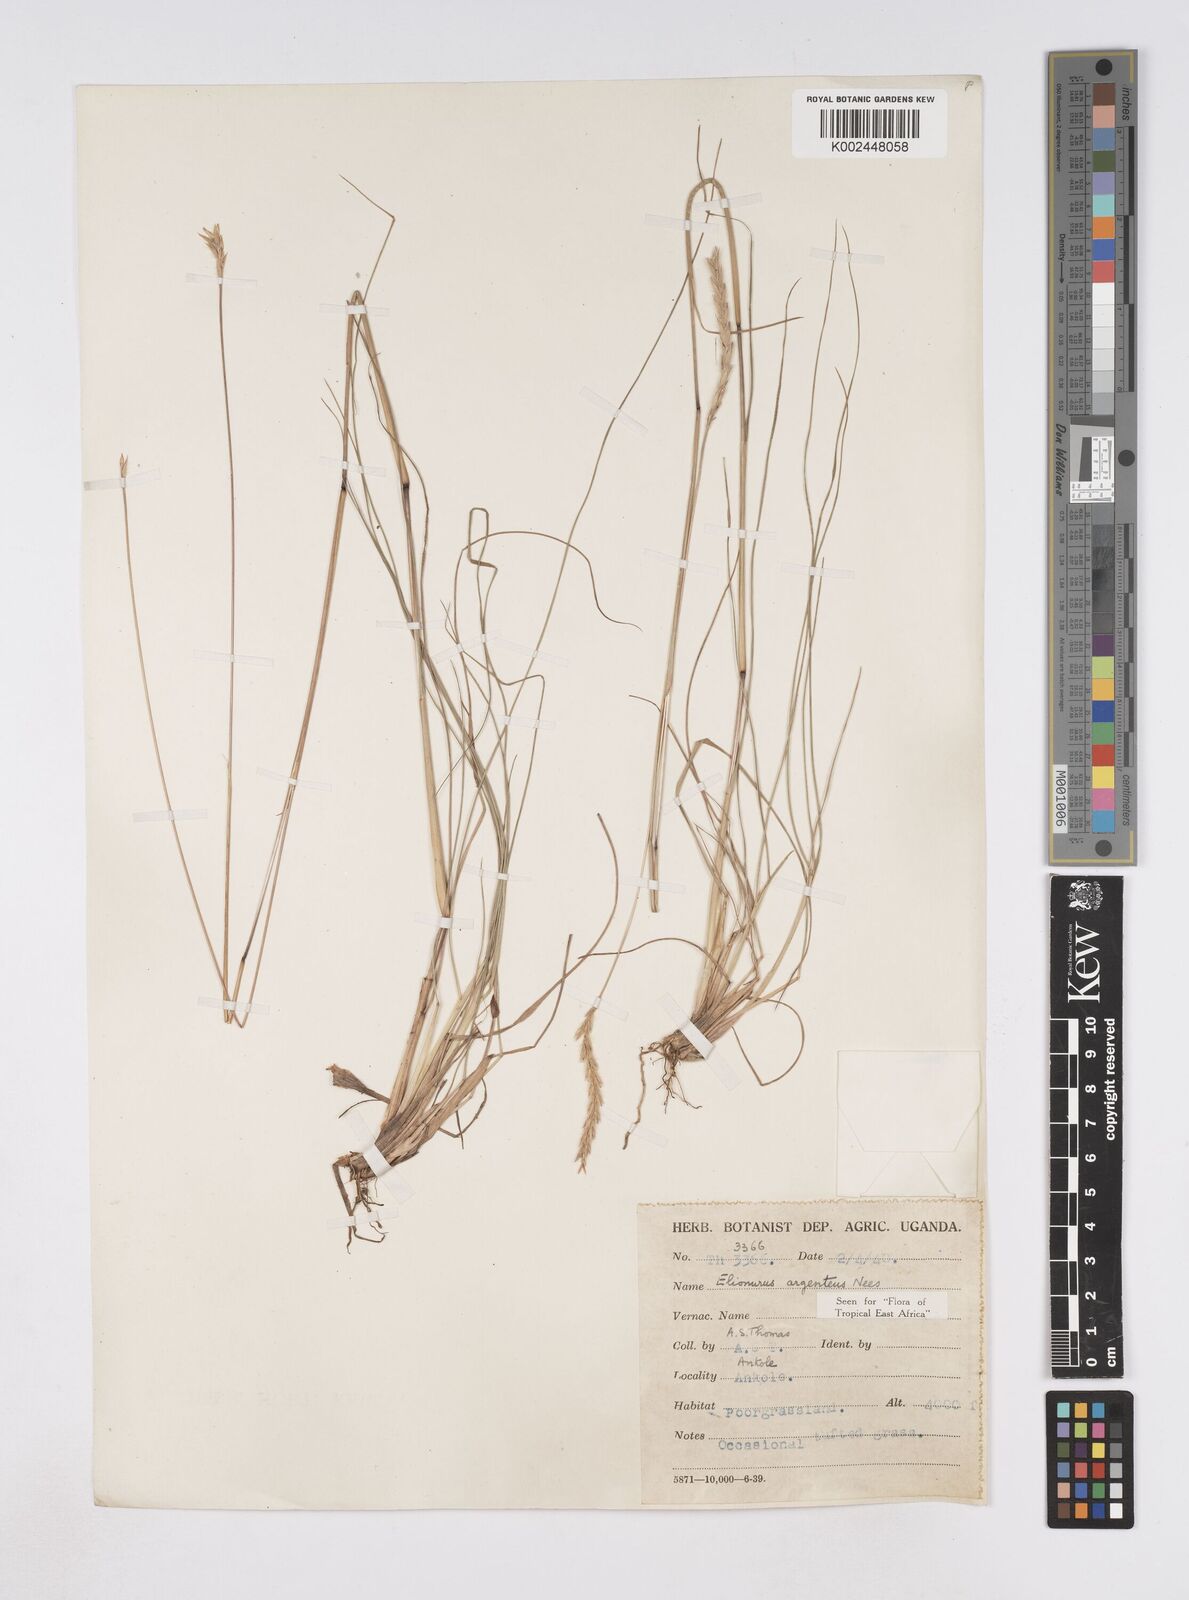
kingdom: Plantae
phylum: Tracheophyta
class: Liliopsida
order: Poales
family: Poaceae
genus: Elionurus
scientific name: Elionurus muticus
